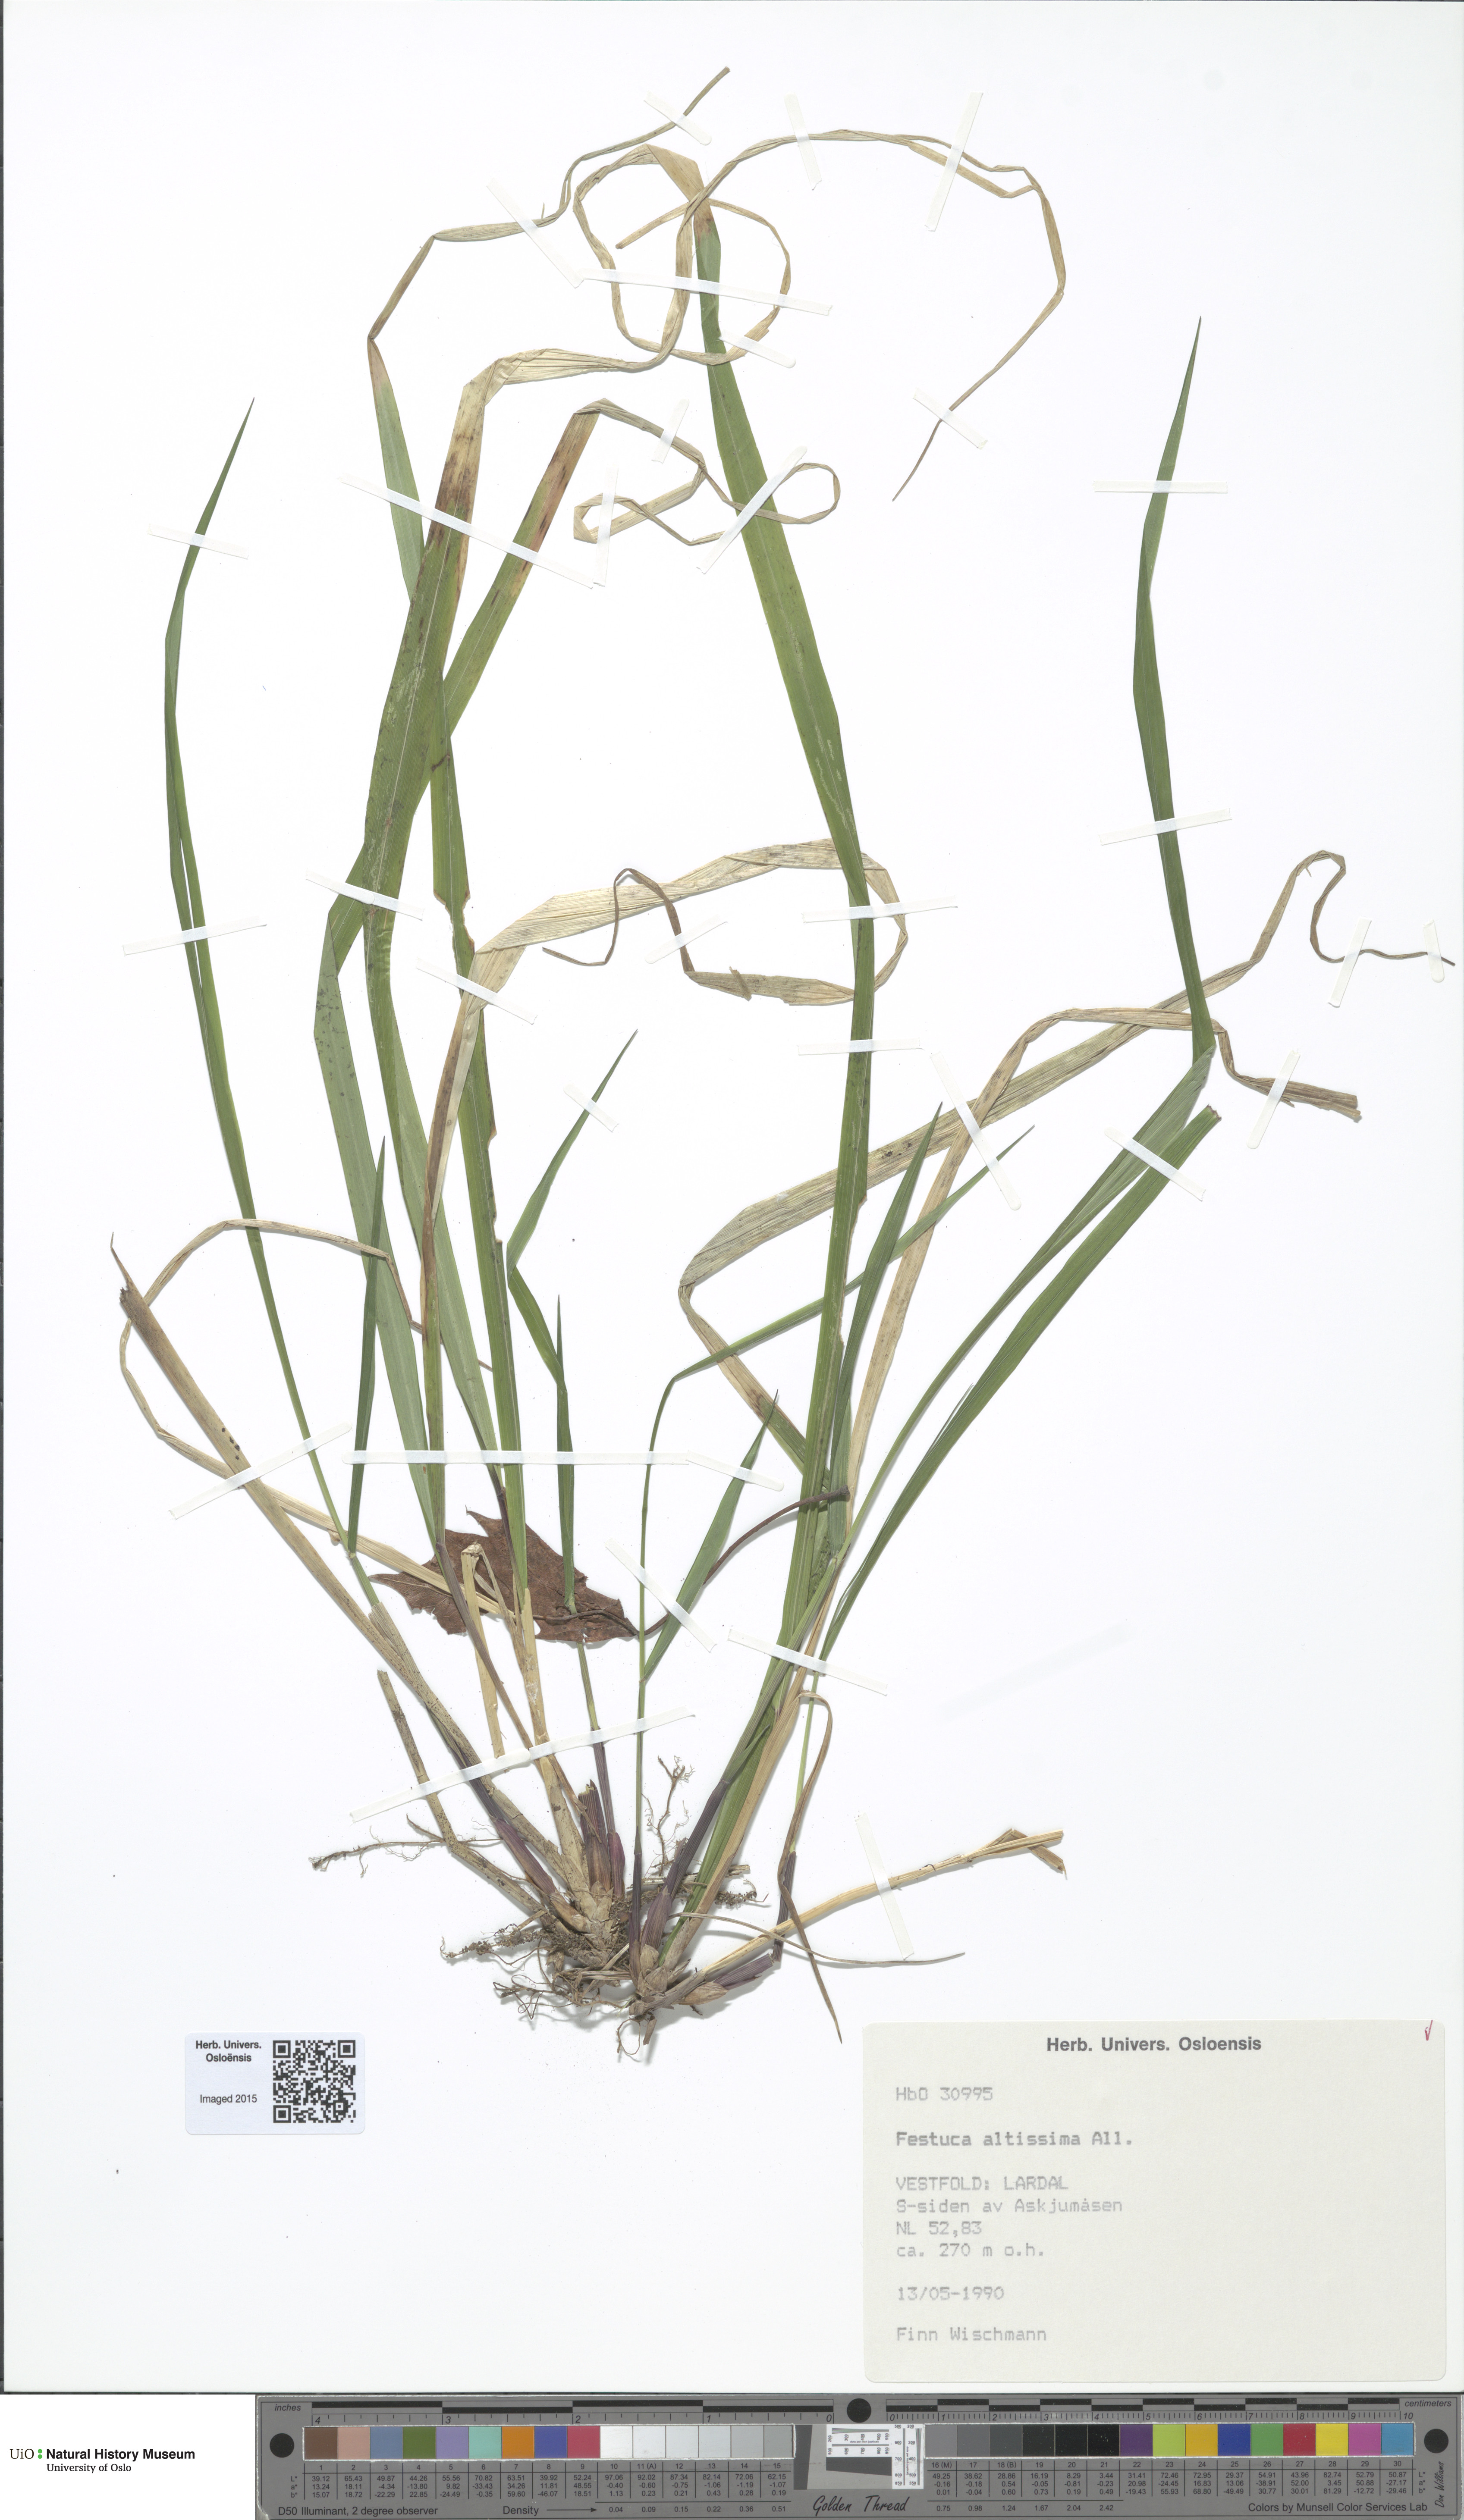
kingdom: Plantae
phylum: Tracheophyta
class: Liliopsida
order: Poales
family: Poaceae
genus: Festuca
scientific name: Festuca altissima
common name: Wood fescue
